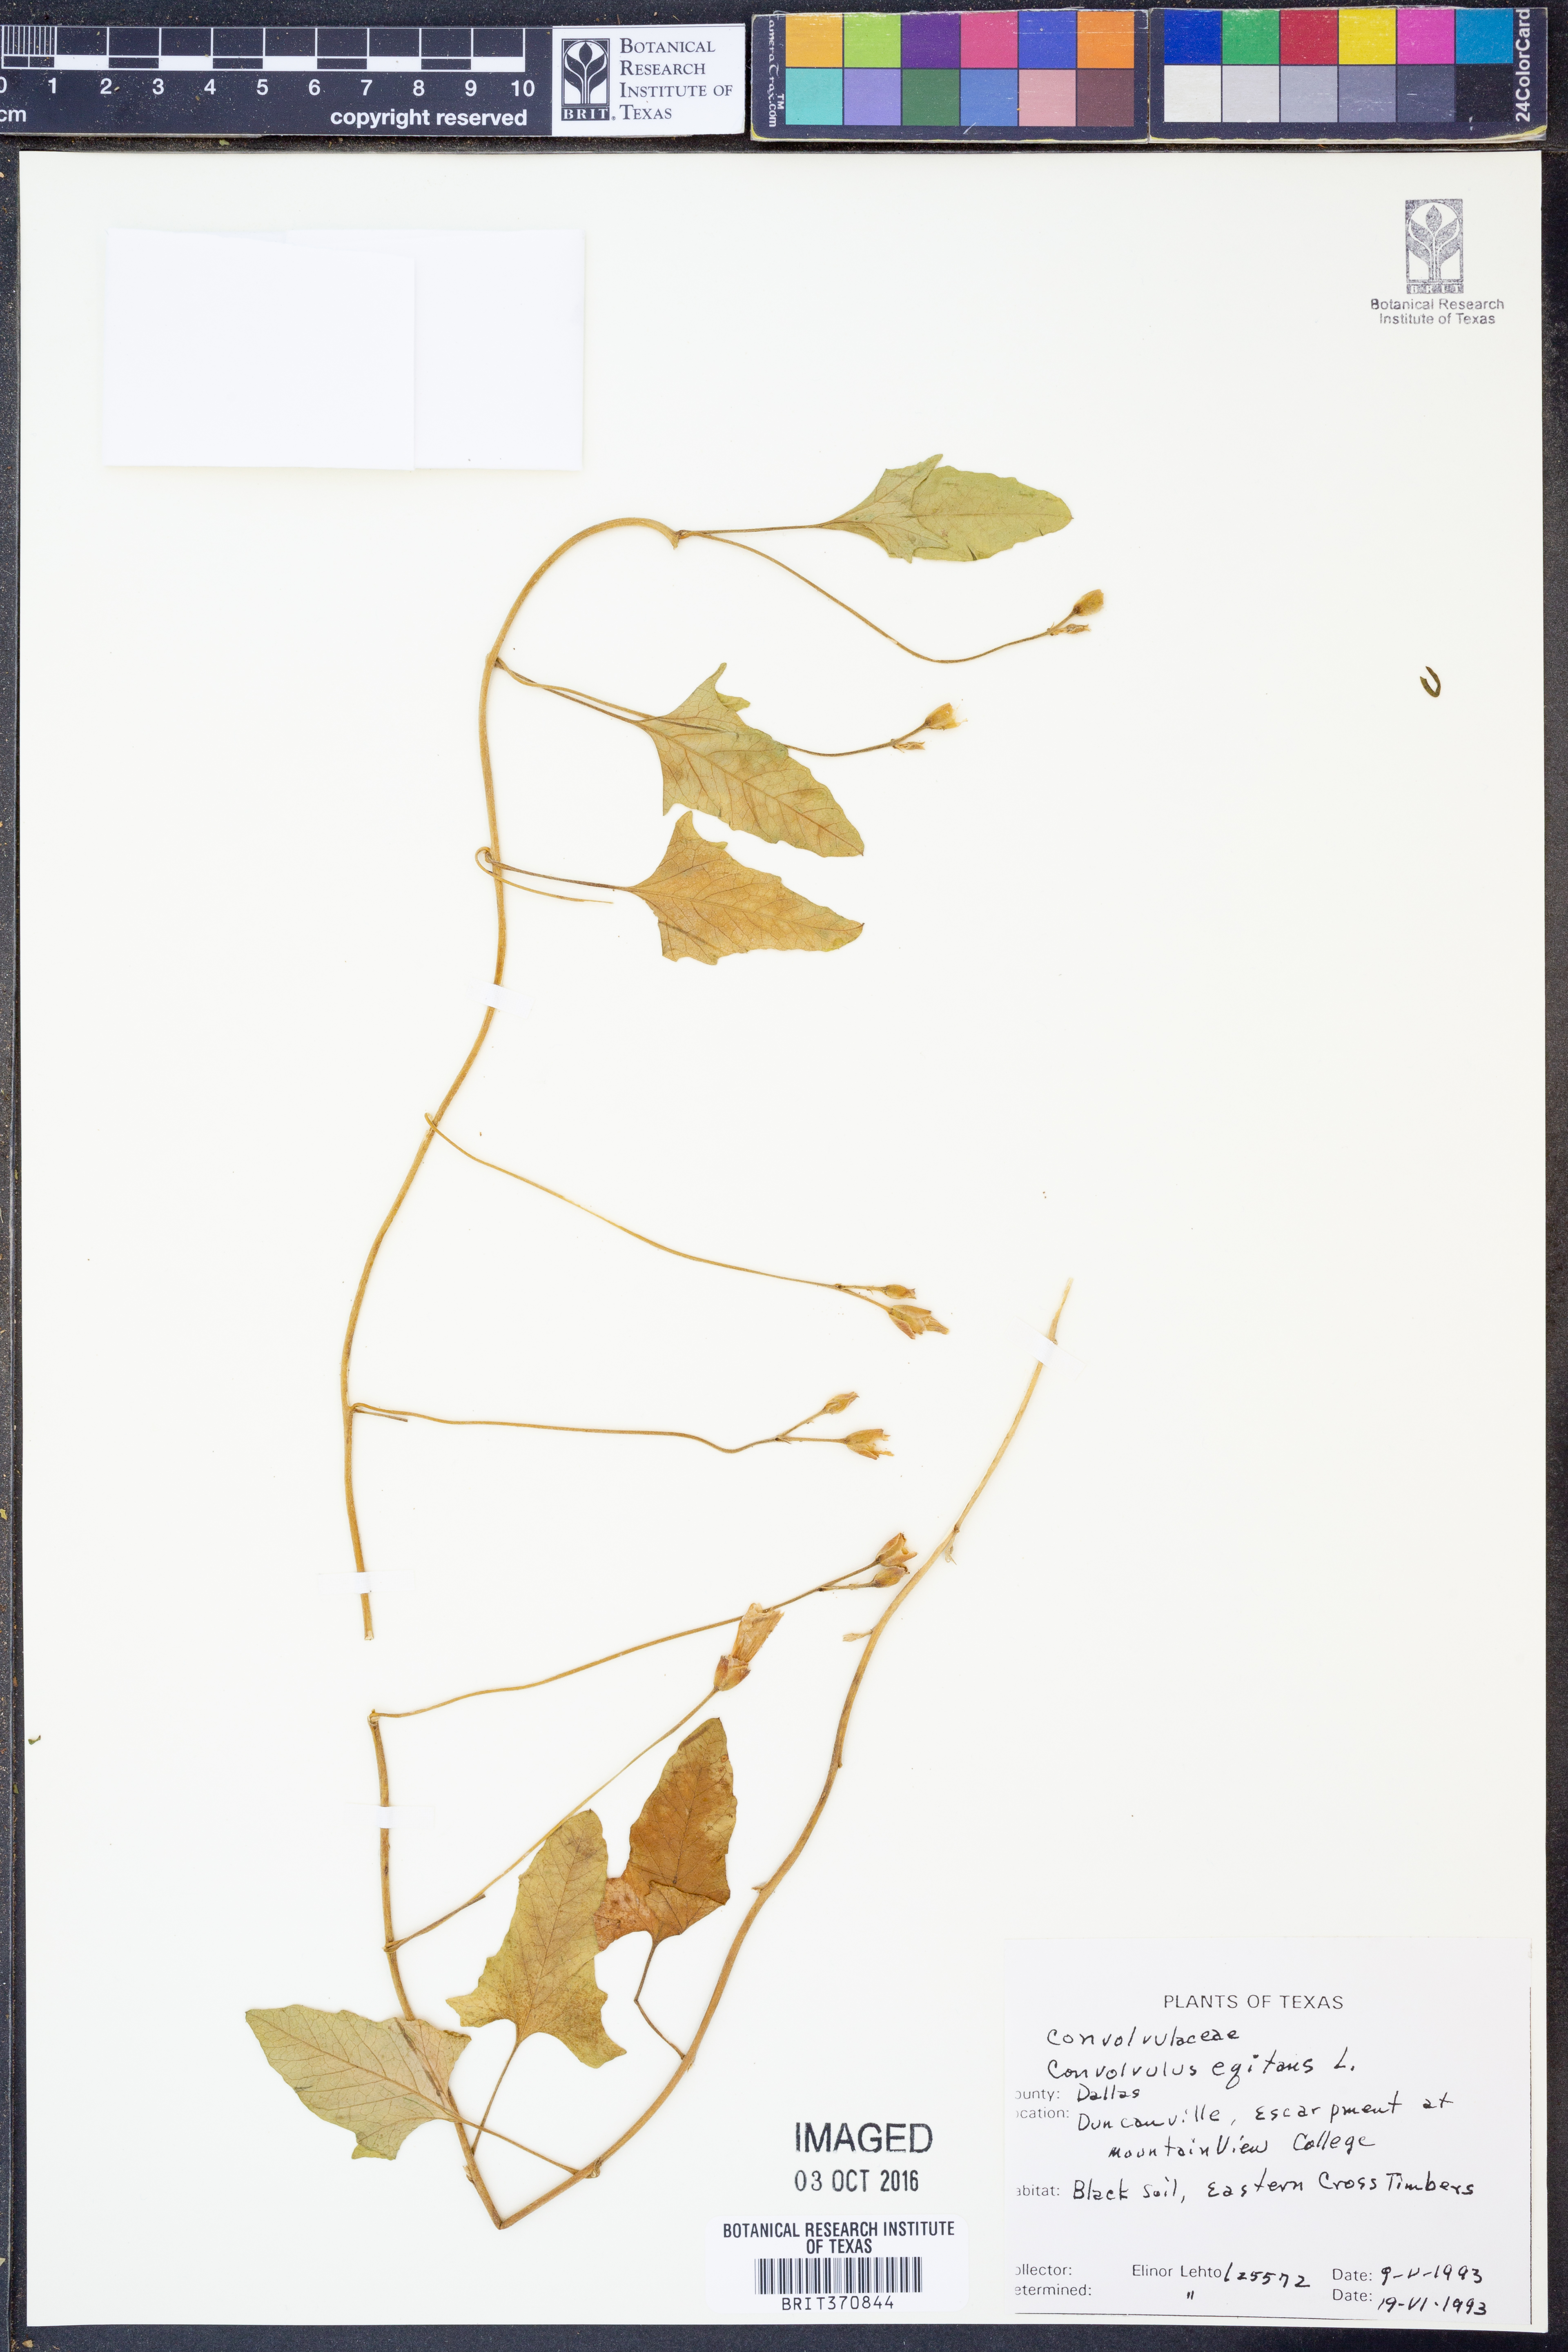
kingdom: Plantae
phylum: Tracheophyta
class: Magnoliopsida
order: Solanales
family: Convolvulaceae
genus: Convolvulus
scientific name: Convolvulus equitans
